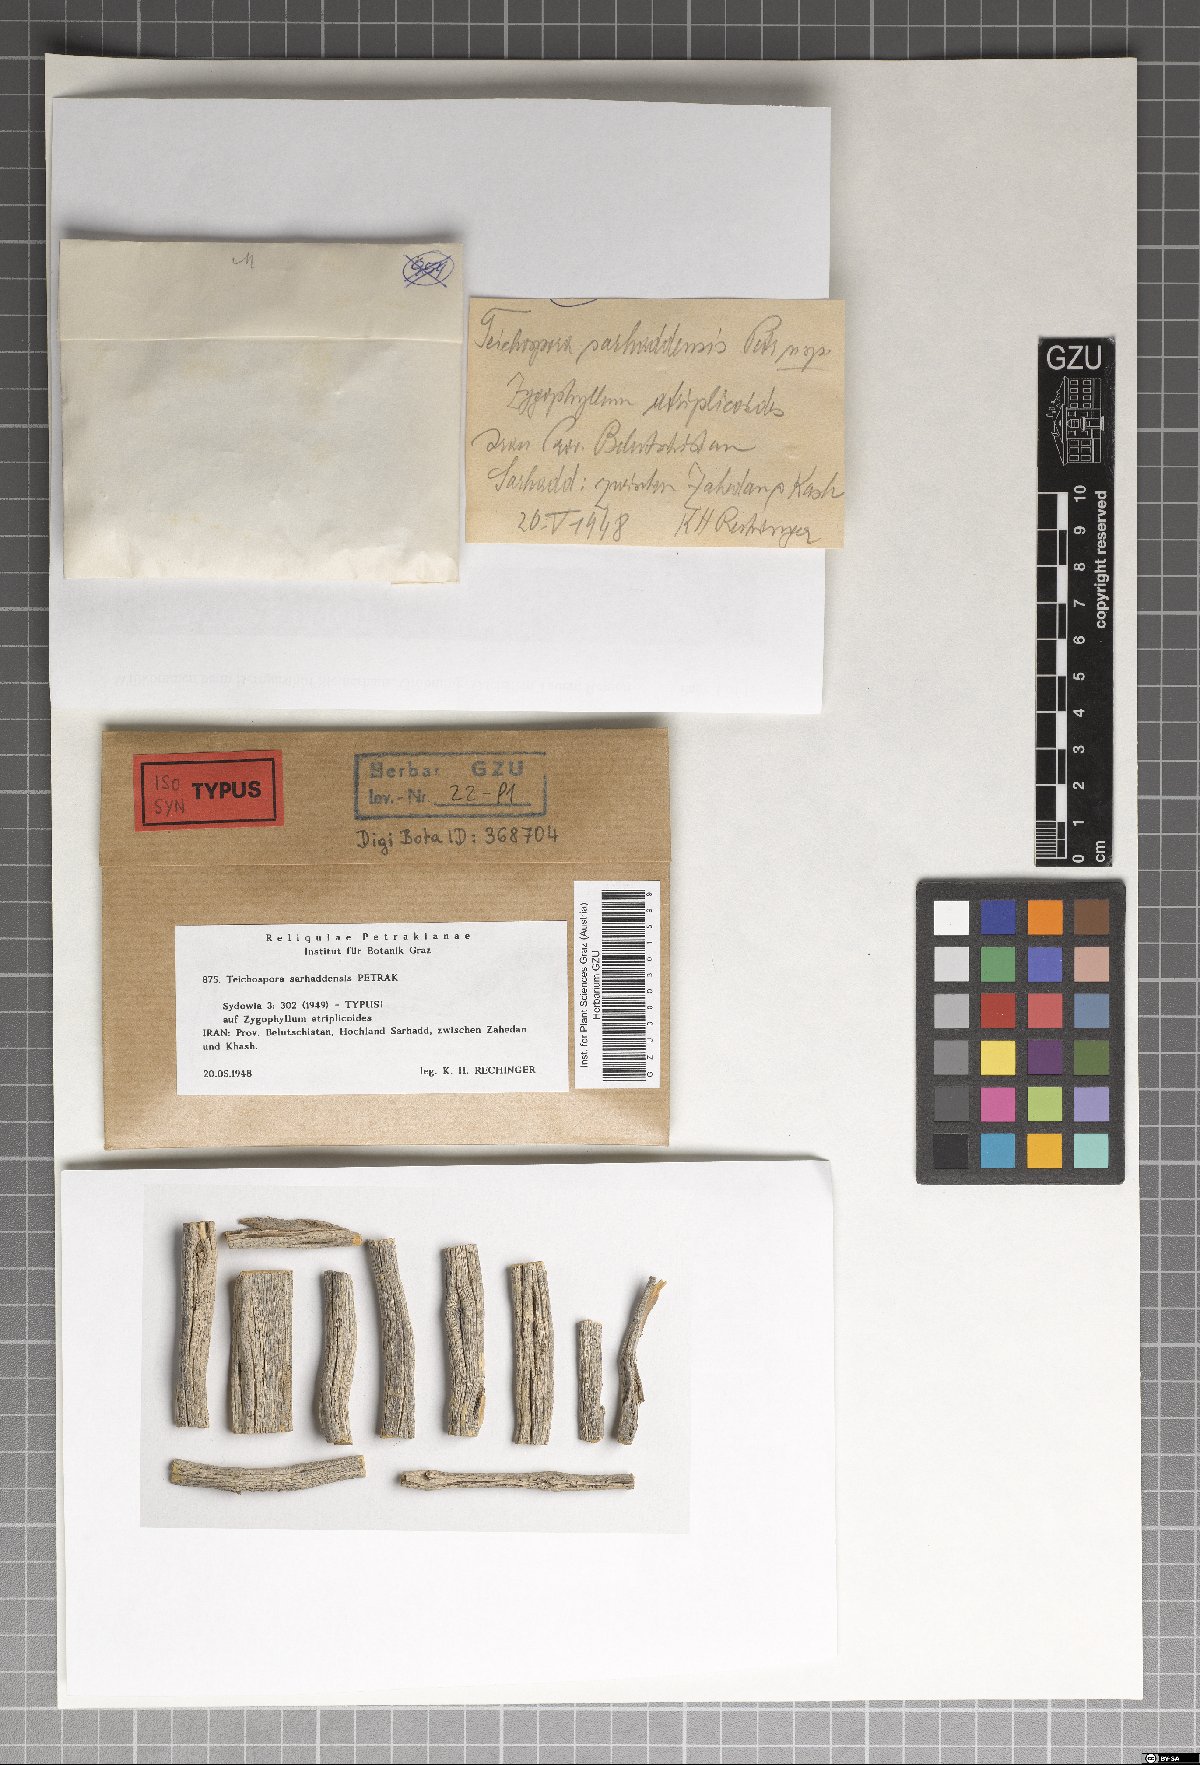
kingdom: Fungi
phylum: Ascomycota
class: Sordariomycetes
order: Amphisphaeriales
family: Sporocadaceae
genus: Strickeria
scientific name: Strickeria sarhaddensis
